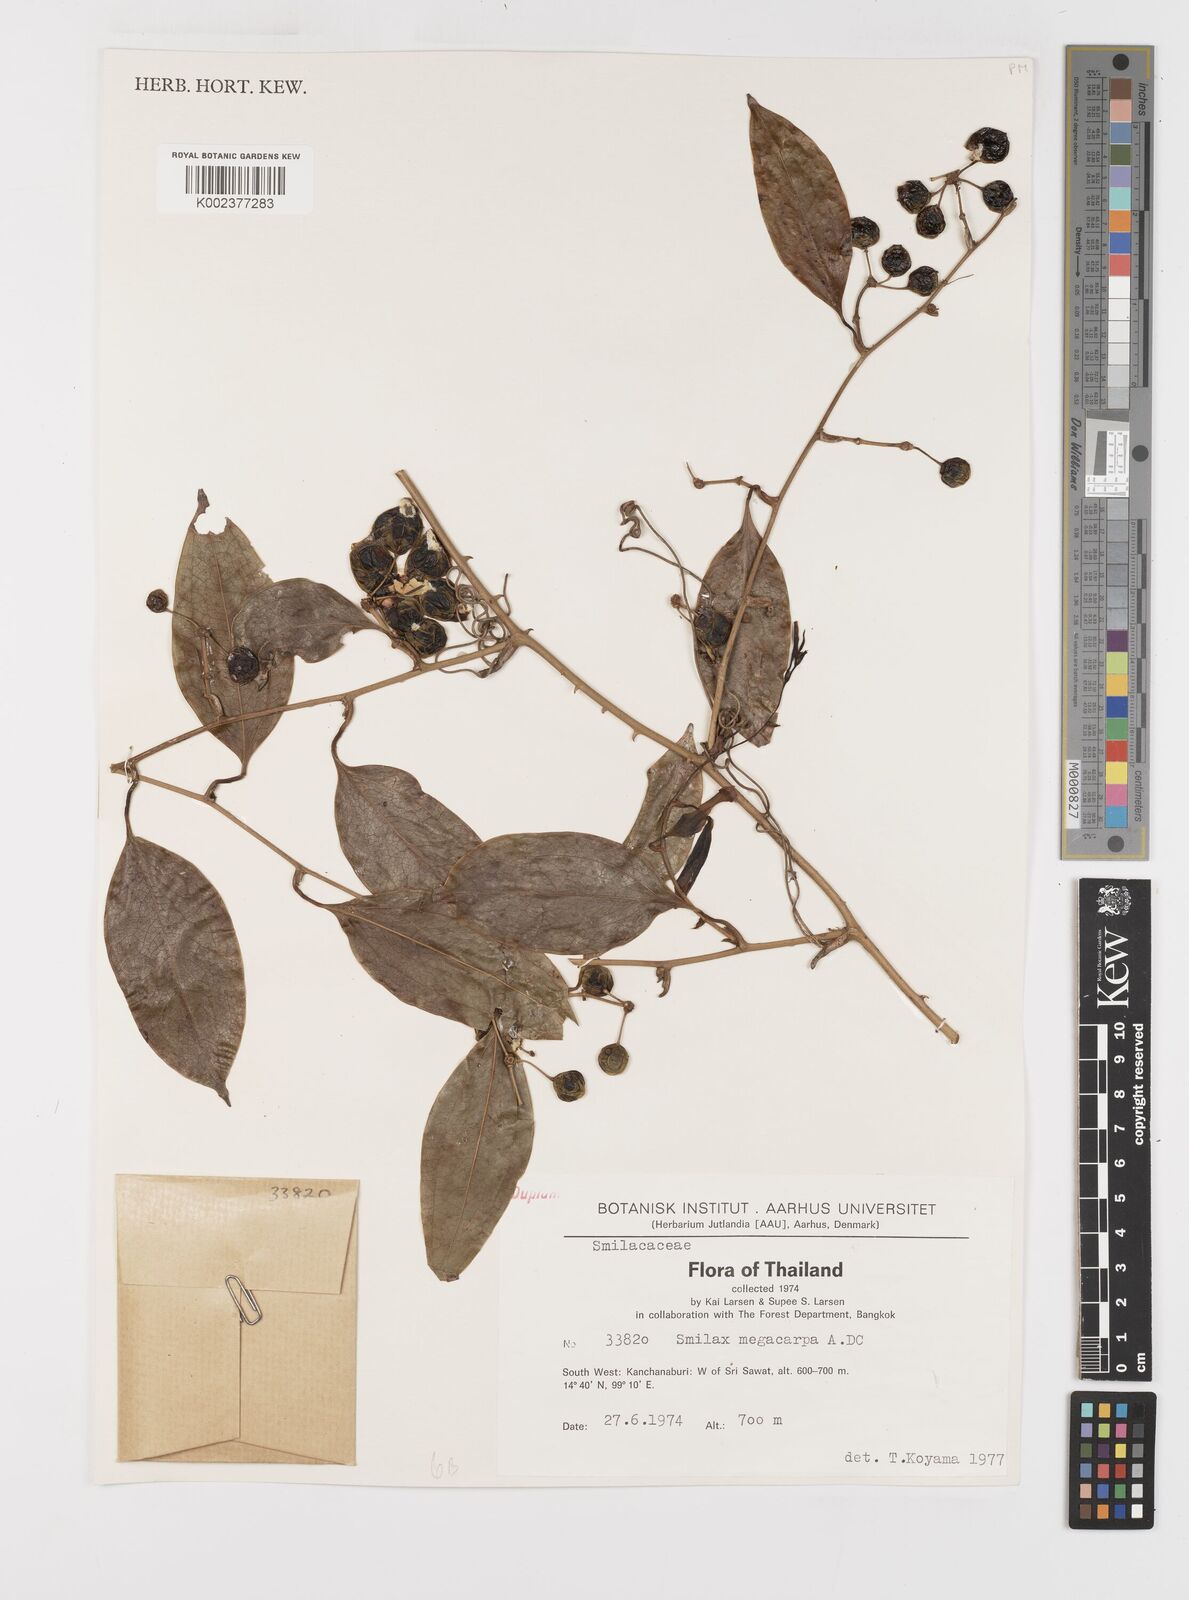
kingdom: Plantae
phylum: Tracheophyta
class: Liliopsida
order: Liliales
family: Smilacaceae
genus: Smilax
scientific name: Smilax megacarpa
